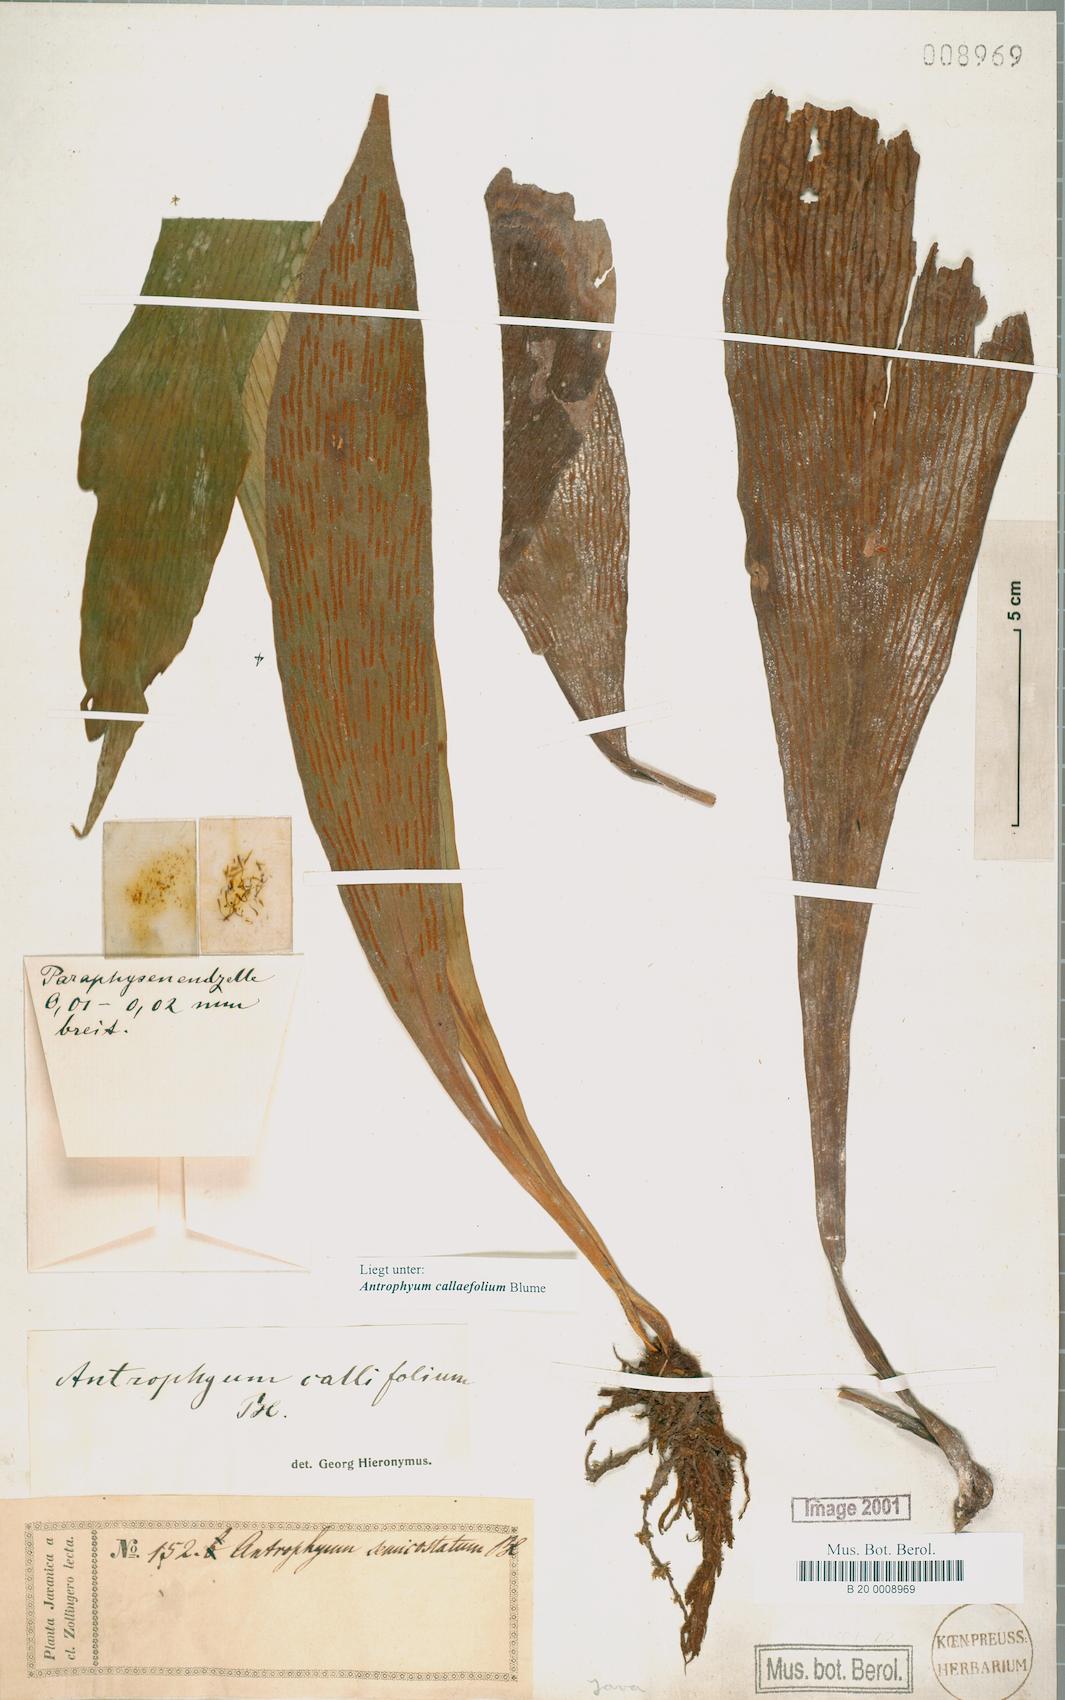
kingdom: Plantae
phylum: Tracheophyta
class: Polypodiopsida
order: Polypodiales
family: Pteridaceae
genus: Antrophyum
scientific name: Antrophyum callifolium
